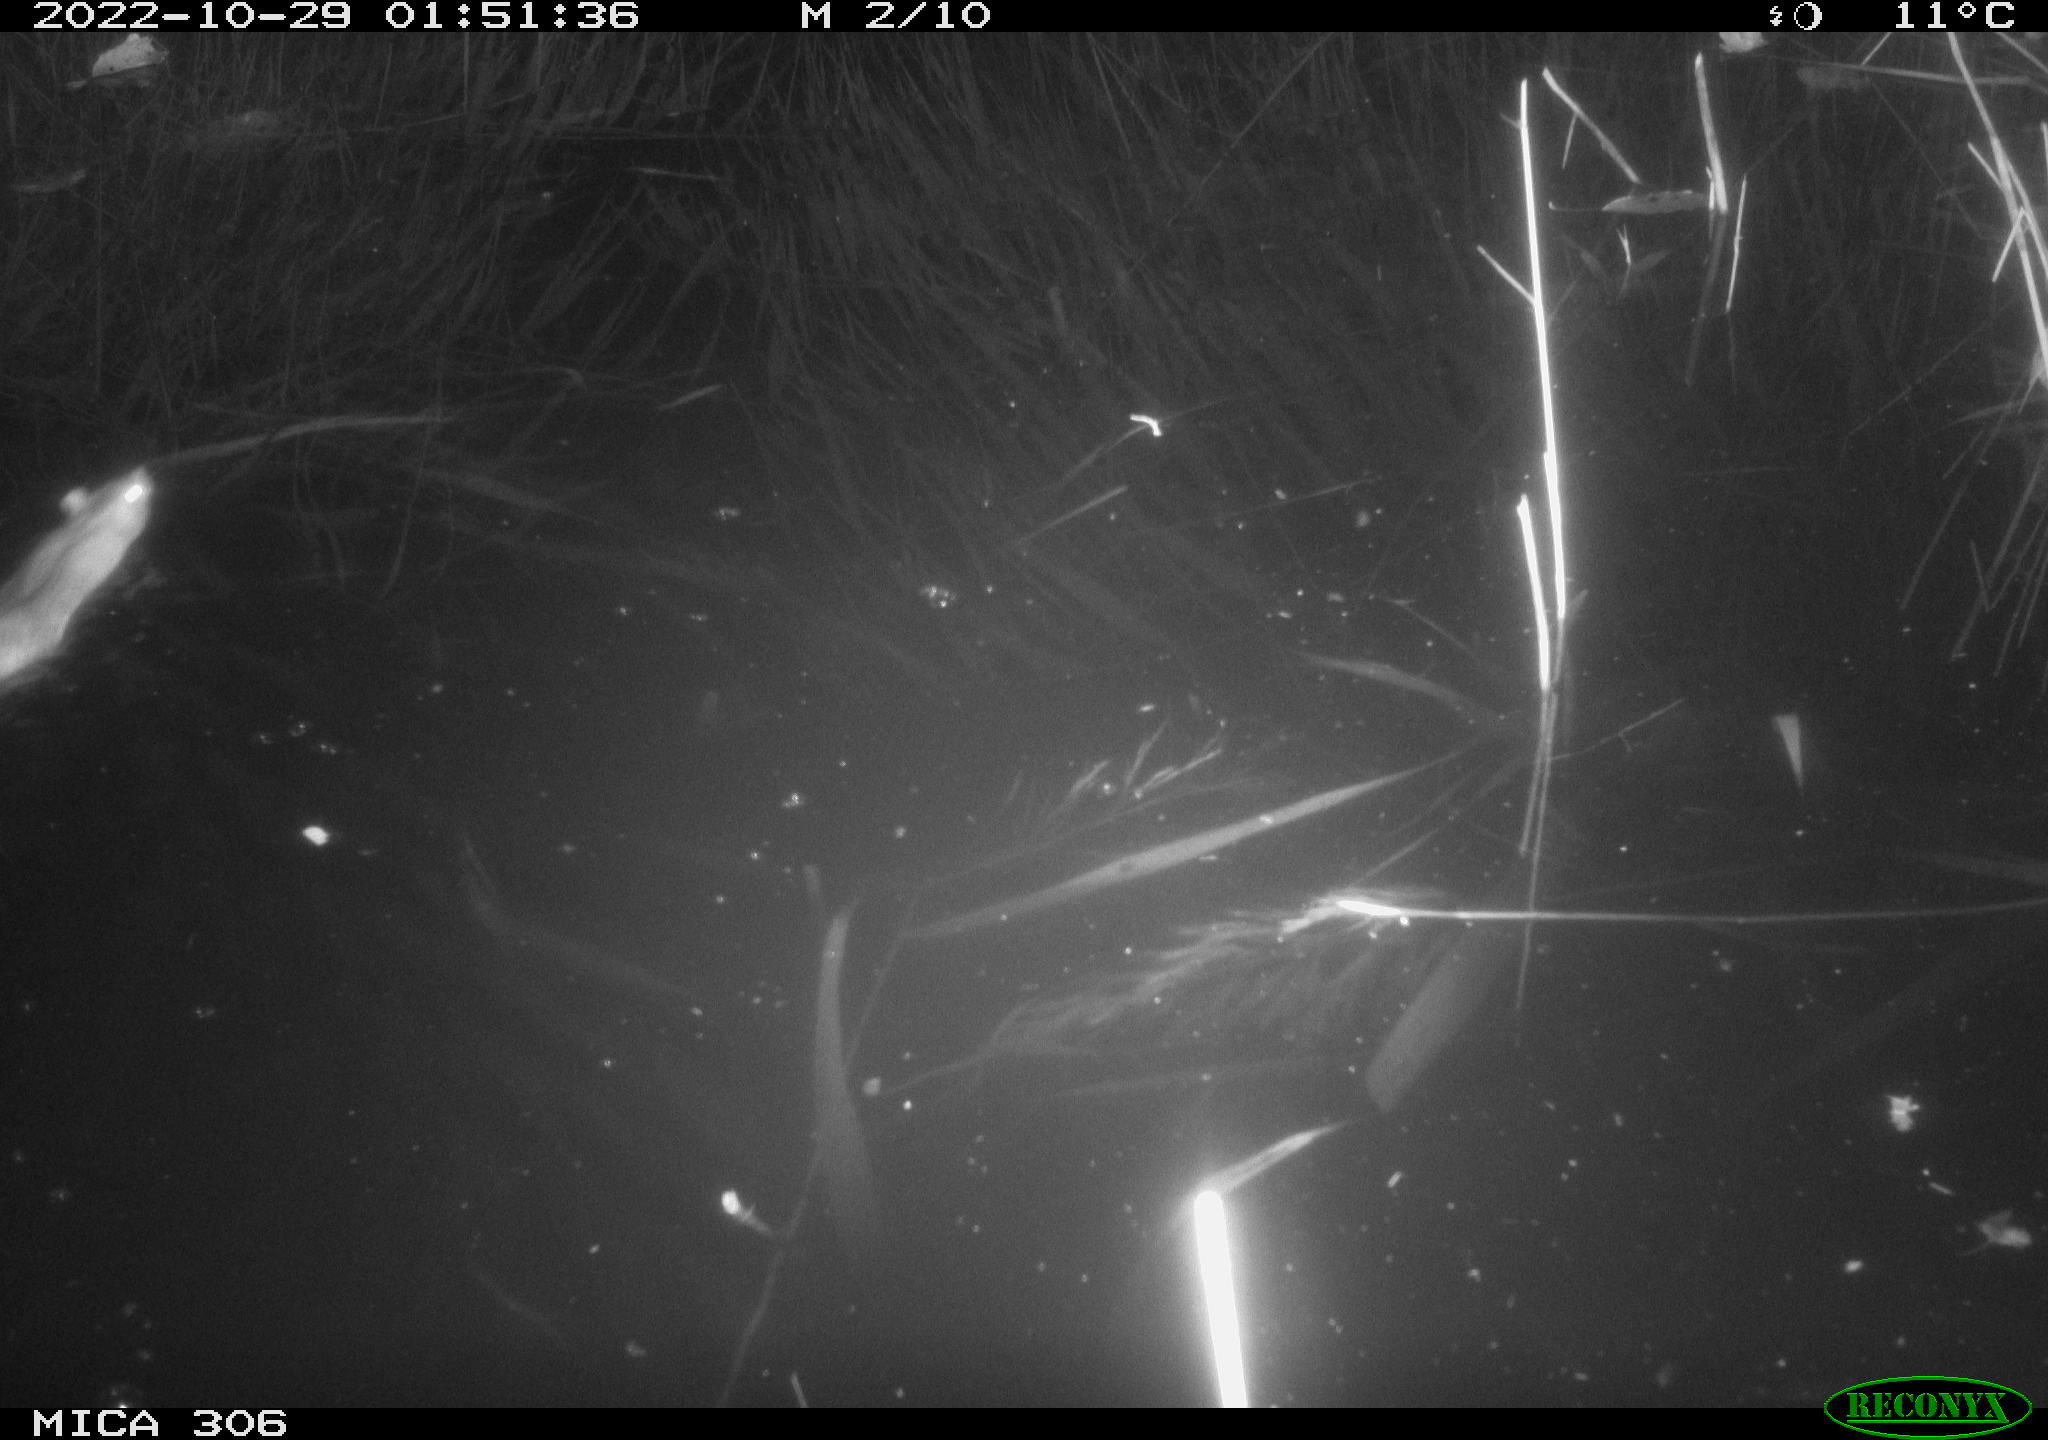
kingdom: Animalia
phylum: Chordata
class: Mammalia
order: Rodentia
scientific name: Rodentia
